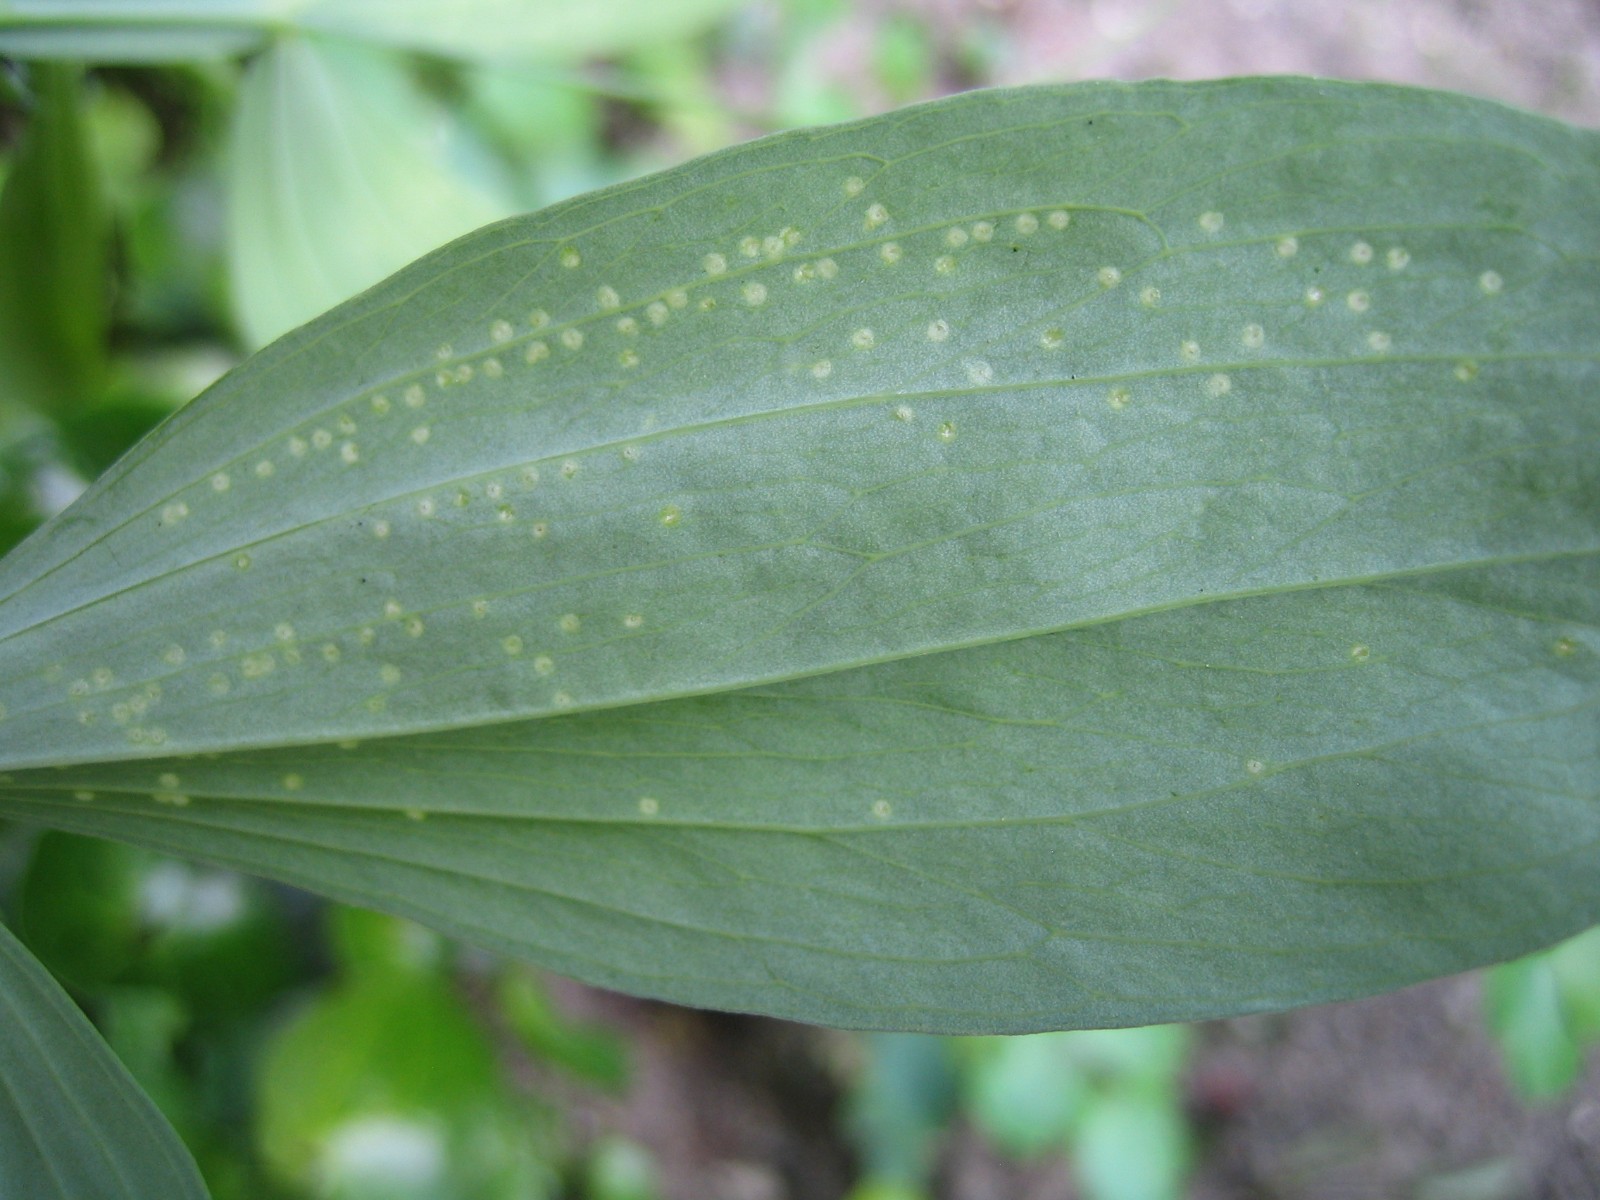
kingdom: Fungi
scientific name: Fungi
